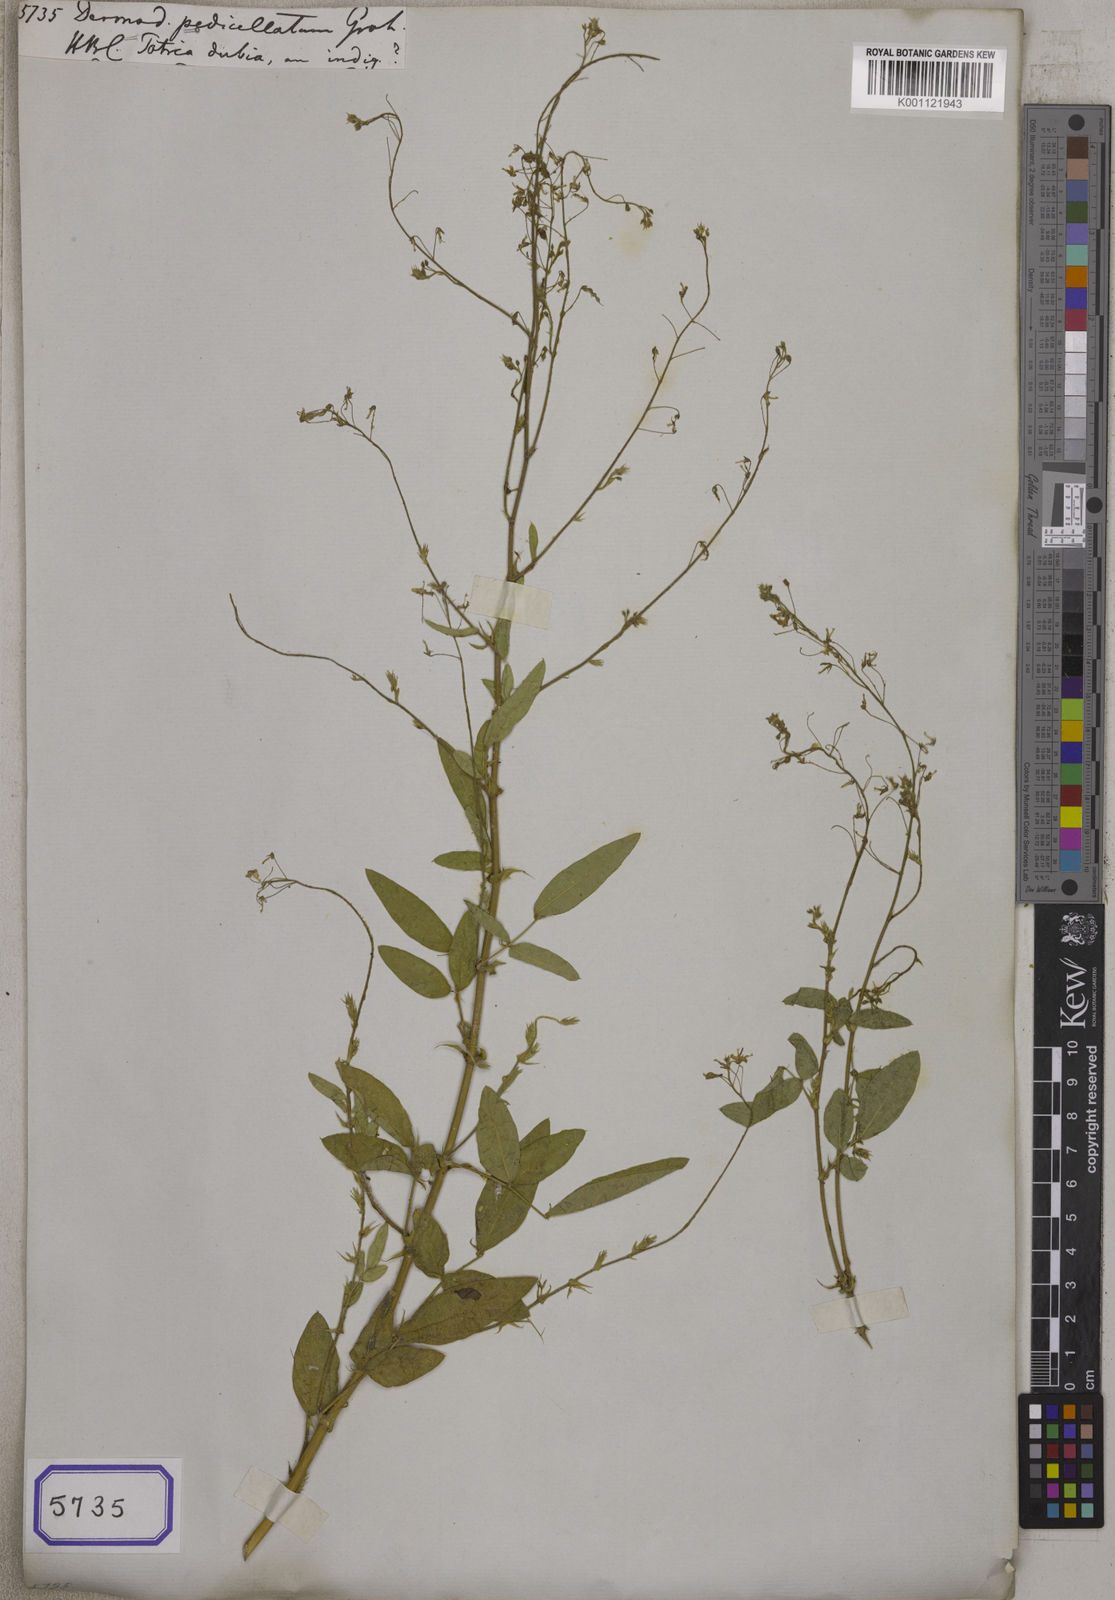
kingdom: Plantae
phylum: Tracheophyta
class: Magnoliopsida
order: Fabales
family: Fabaceae
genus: Desmodium
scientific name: Desmodium
